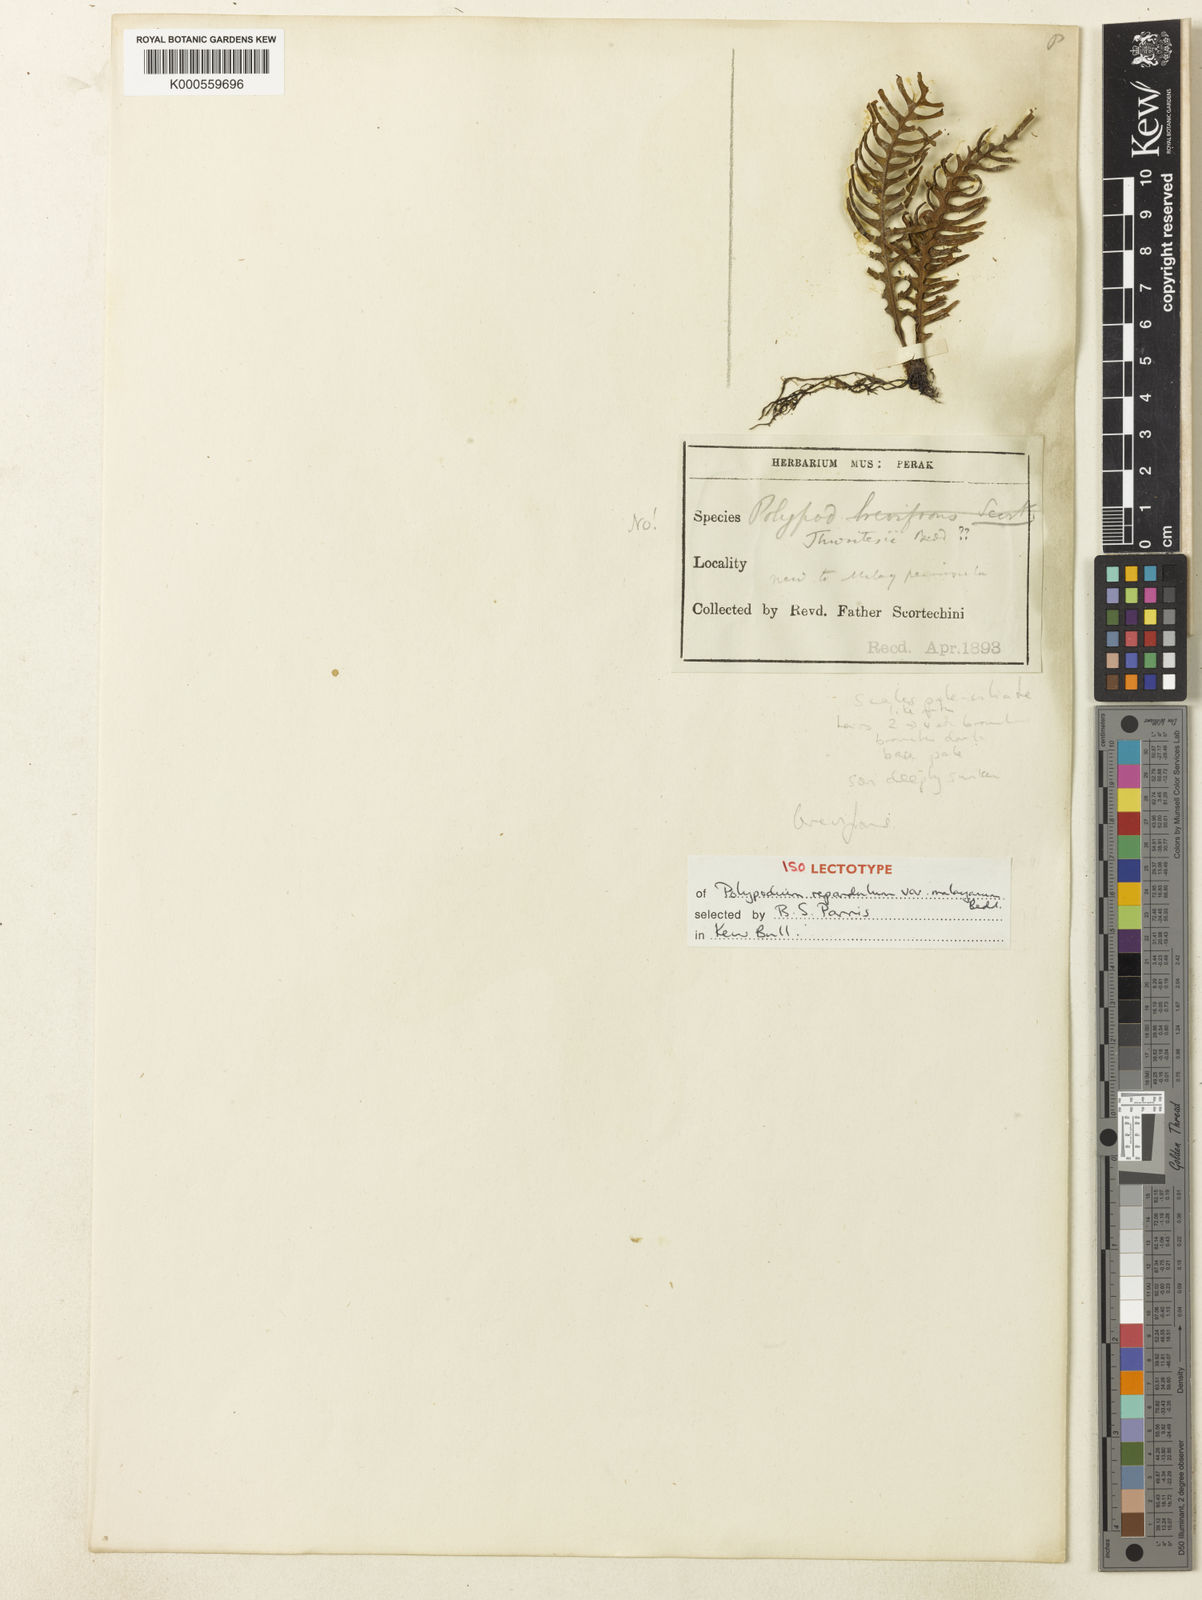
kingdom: Plantae
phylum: Tracheophyta
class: Polypodiopsida
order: Polypodiales
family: Polypodiaceae
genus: Prosaptia
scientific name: Prosaptia pectinata
